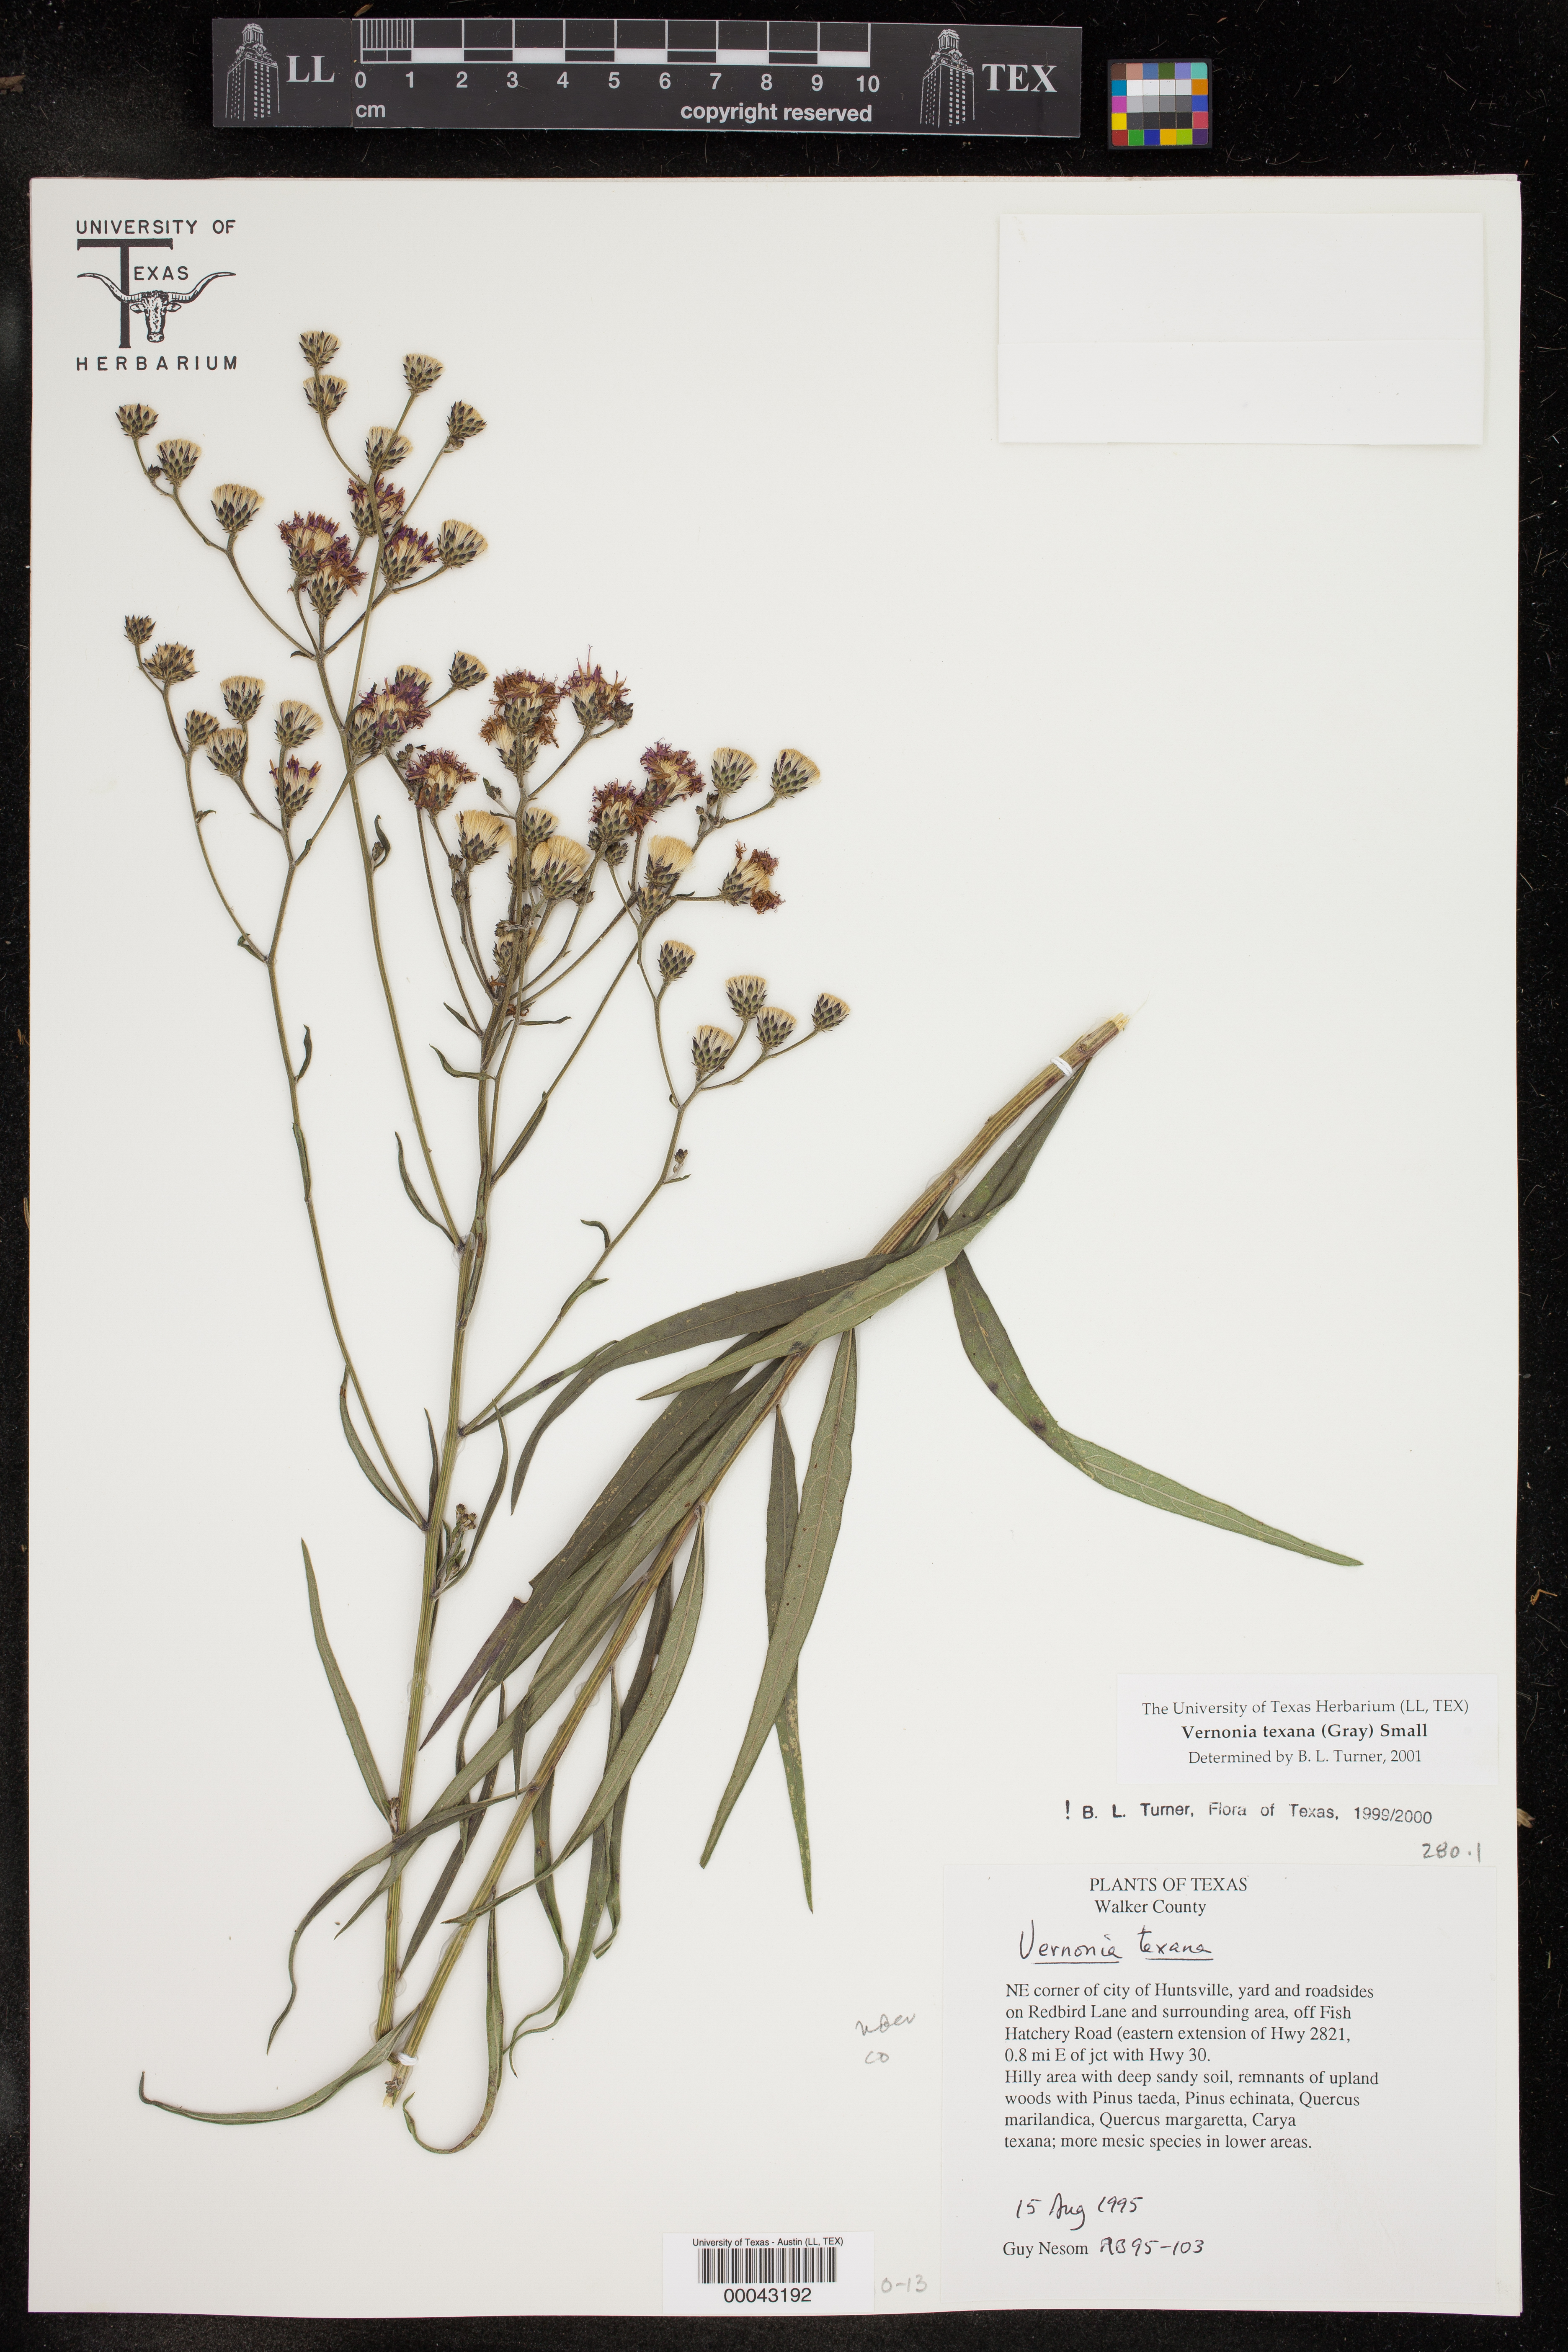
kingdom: Plantae
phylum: Tracheophyta
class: Magnoliopsida
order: Asterales
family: Asteraceae
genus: Vernonia
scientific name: Vernonia texana
